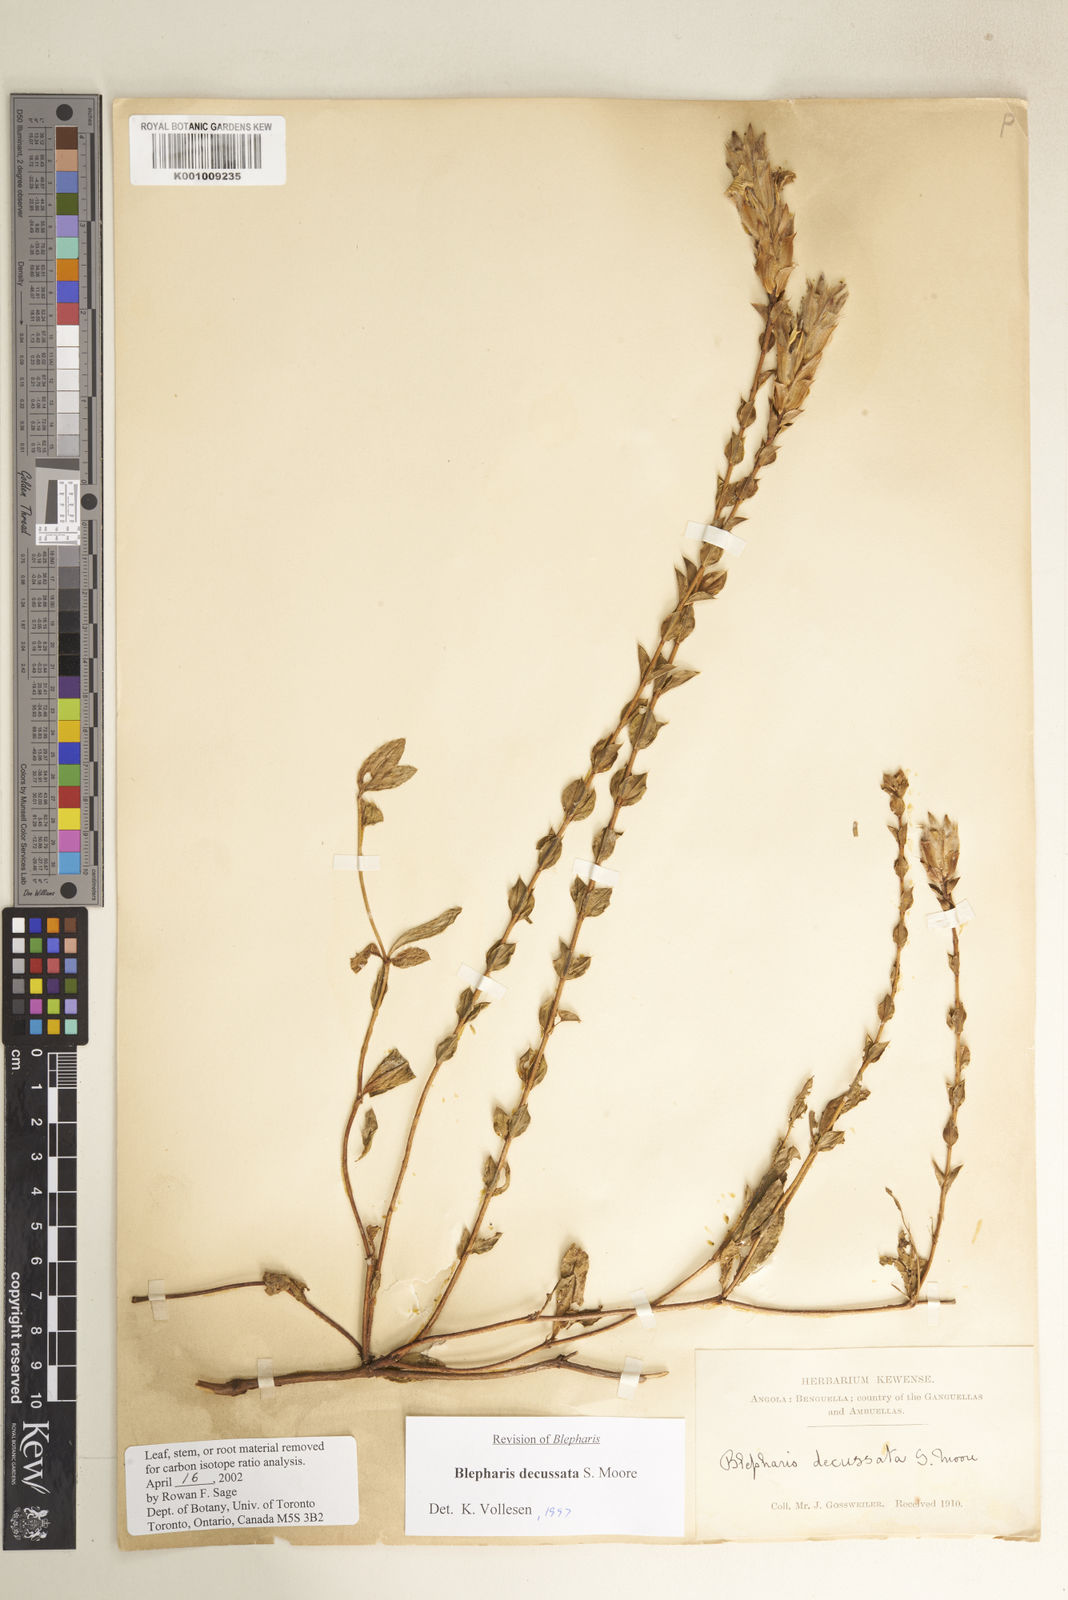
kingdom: Plantae
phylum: Tracheophyta
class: Magnoliopsida
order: Lamiales
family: Acanthaceae
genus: Blepharis
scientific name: Blepharis decussata
